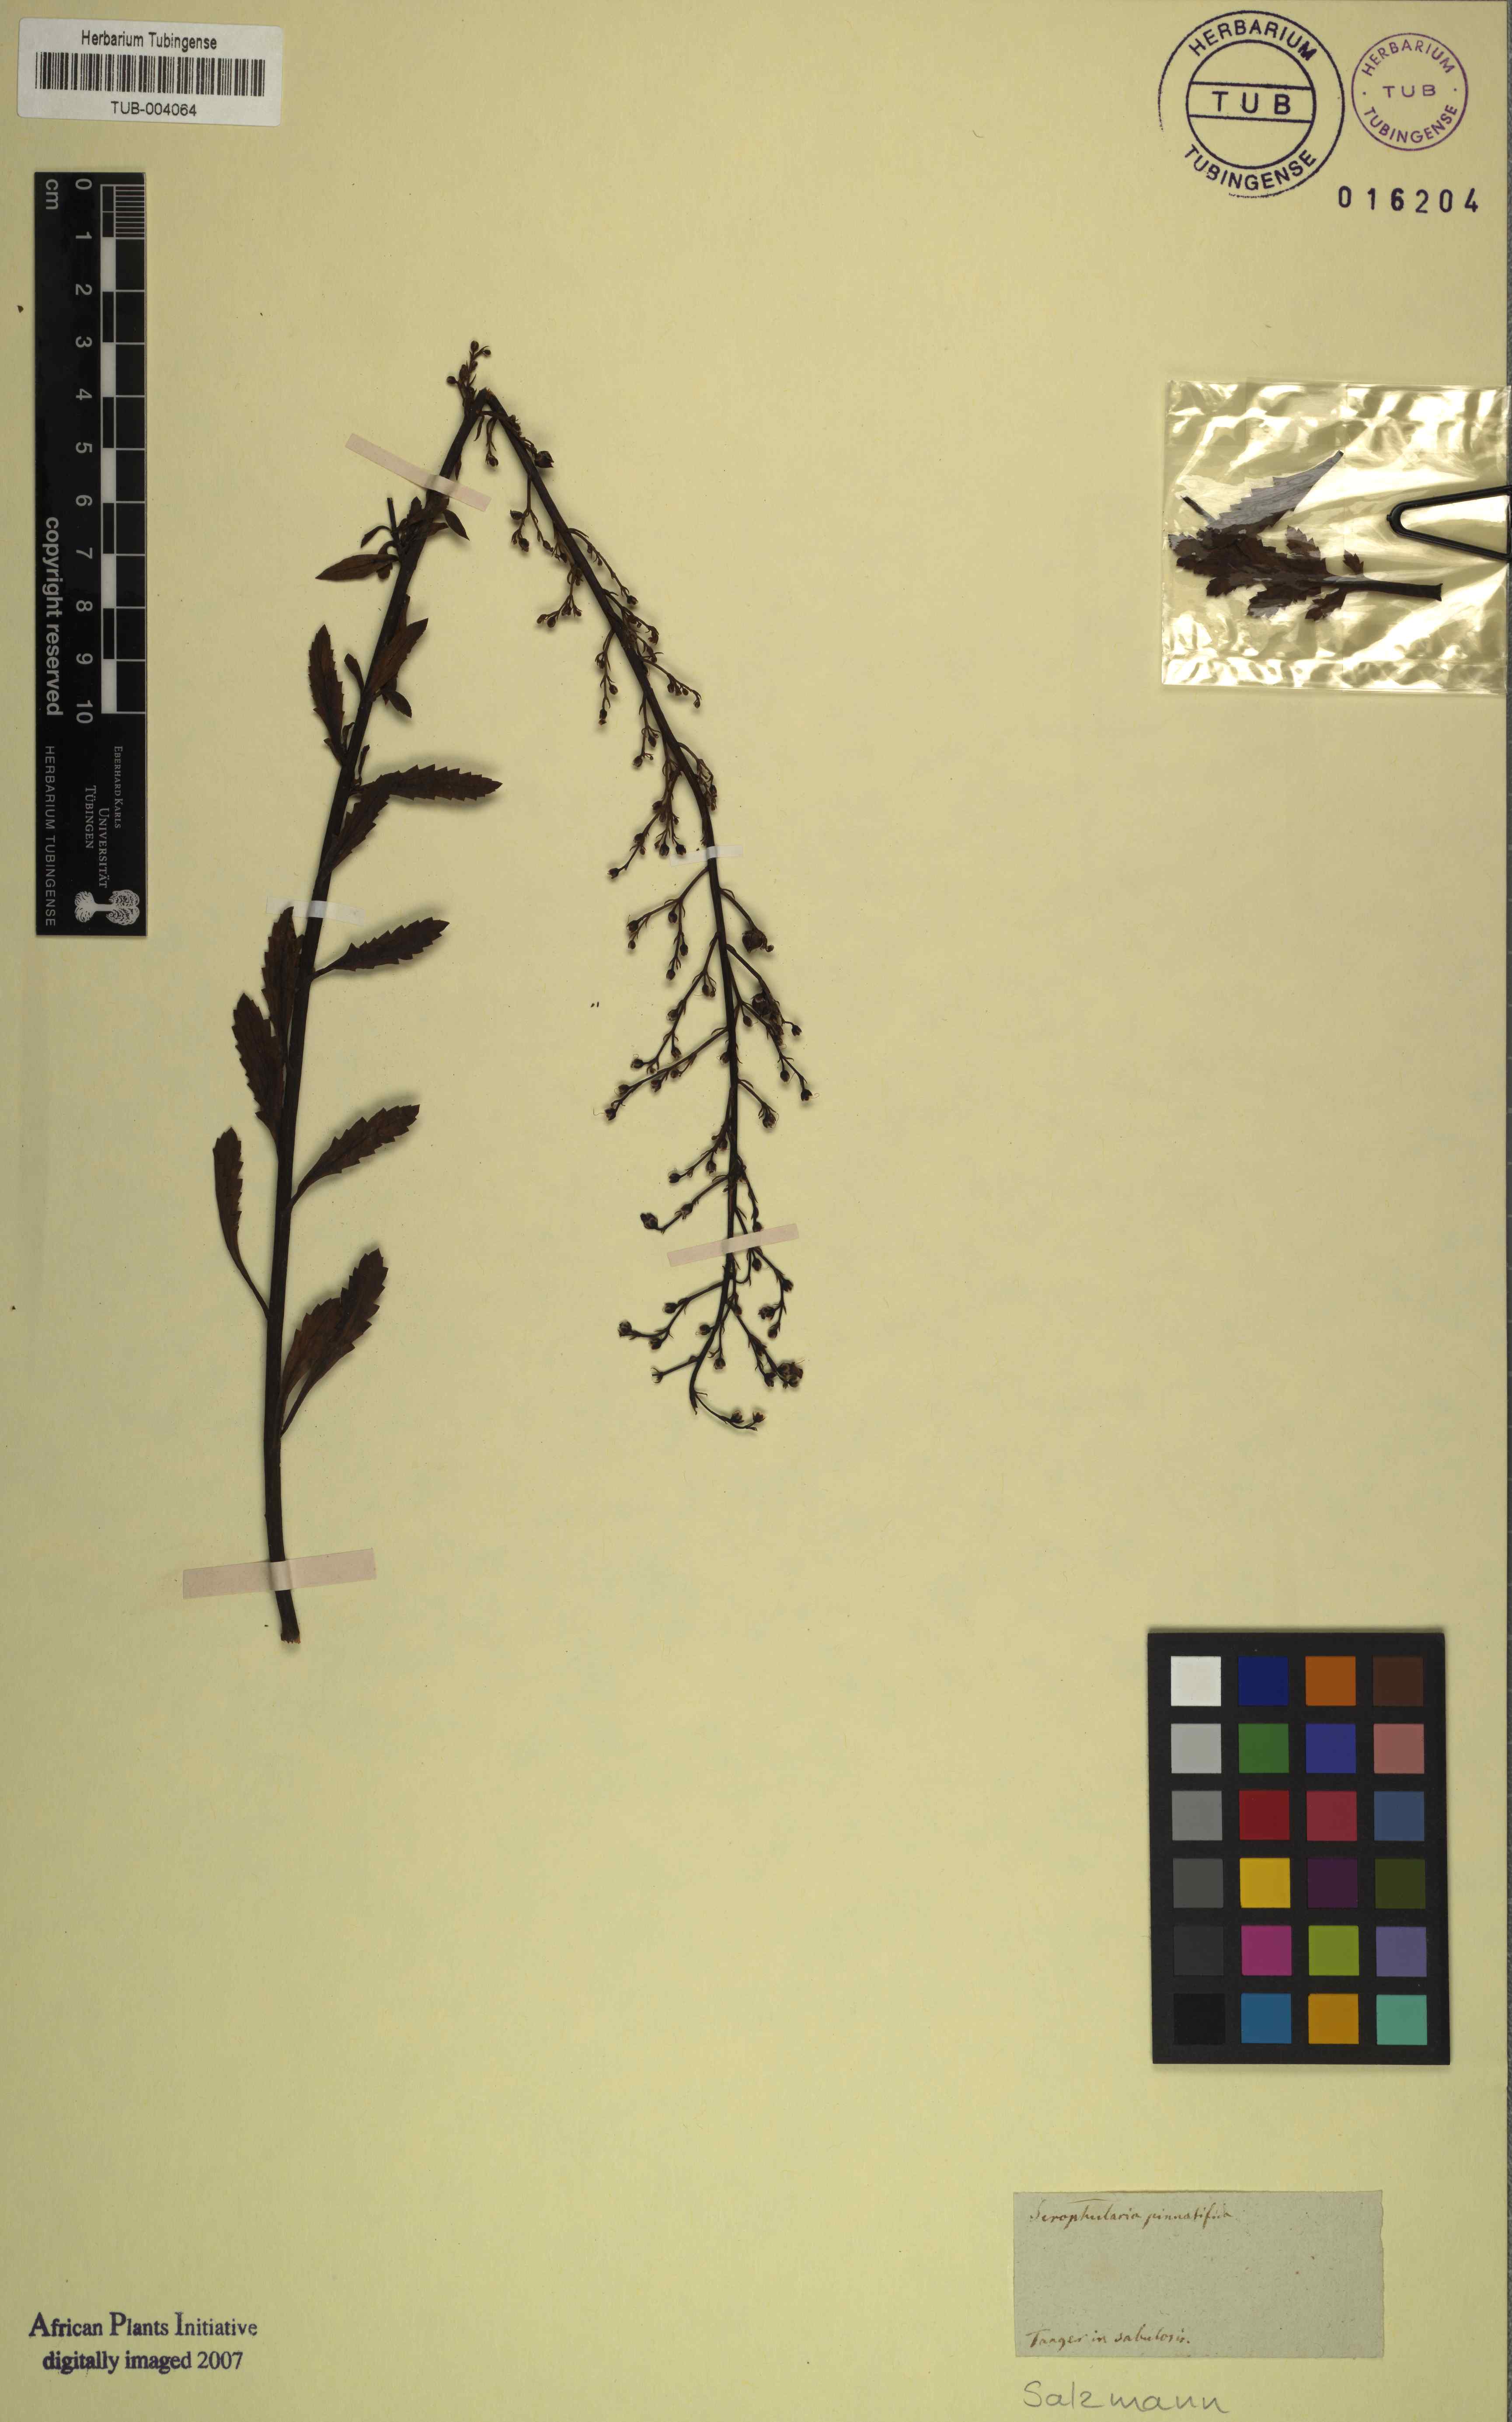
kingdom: Plantae
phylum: Tracheophyta
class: Magnoliopsida
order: Lamiales
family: Scrophulariaceae
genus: Scrophularia
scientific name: Scrophularia canina
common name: French figwort
